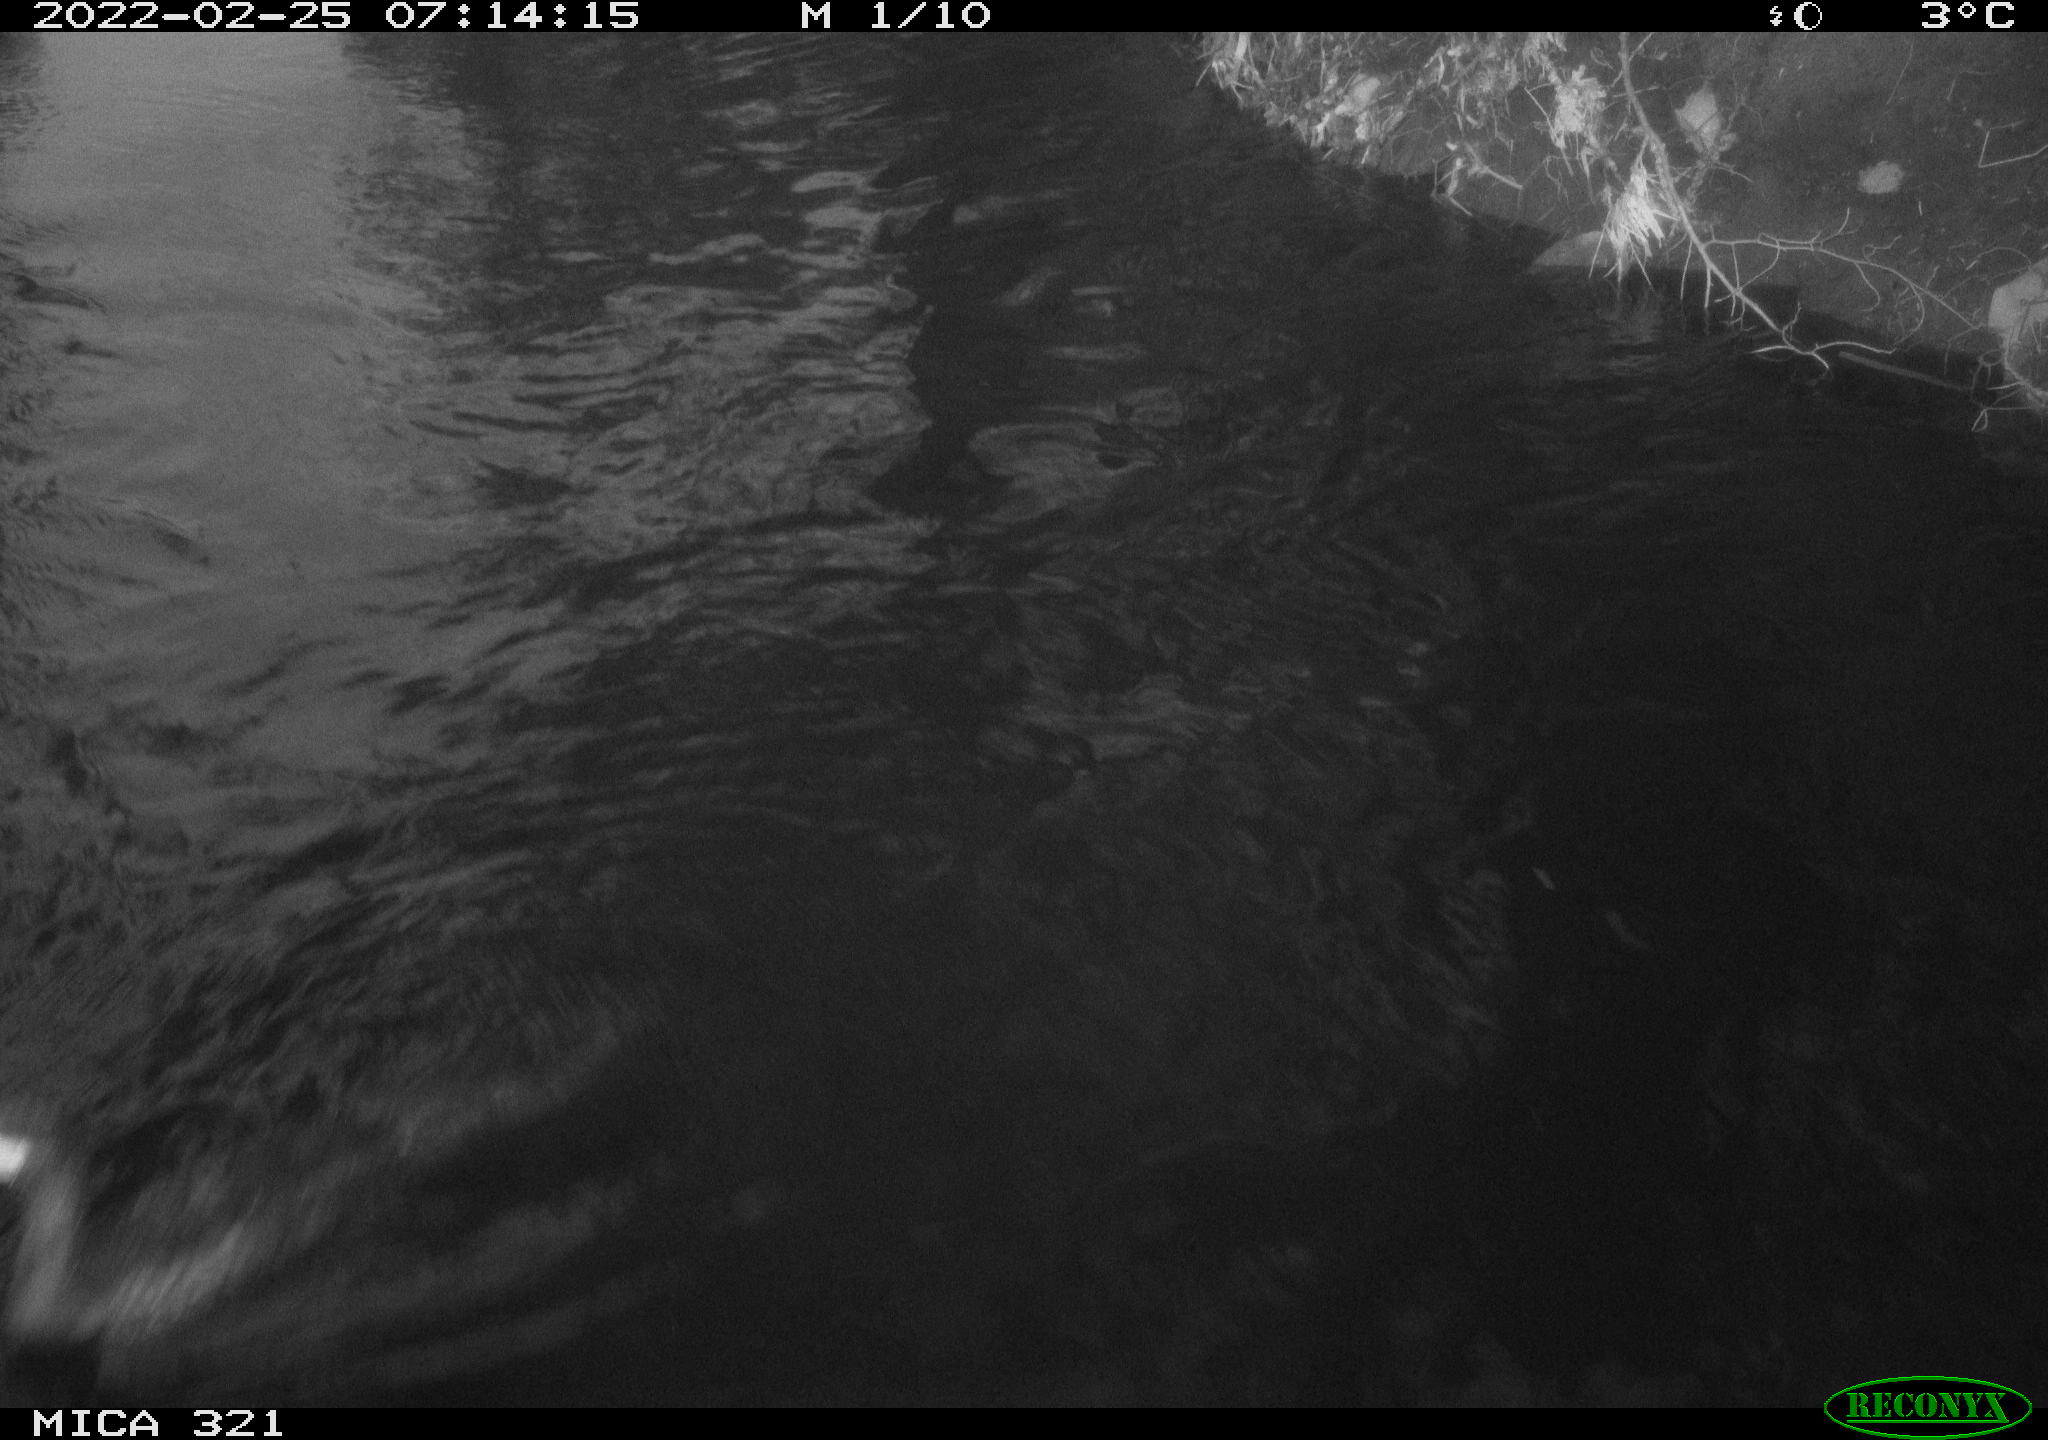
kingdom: Animalia
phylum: Chordata
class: Aves
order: Suliformes
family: Phalacrocoracidae
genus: Phalacrocorax
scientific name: Phalacrocorax carbo
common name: Great cormorant
